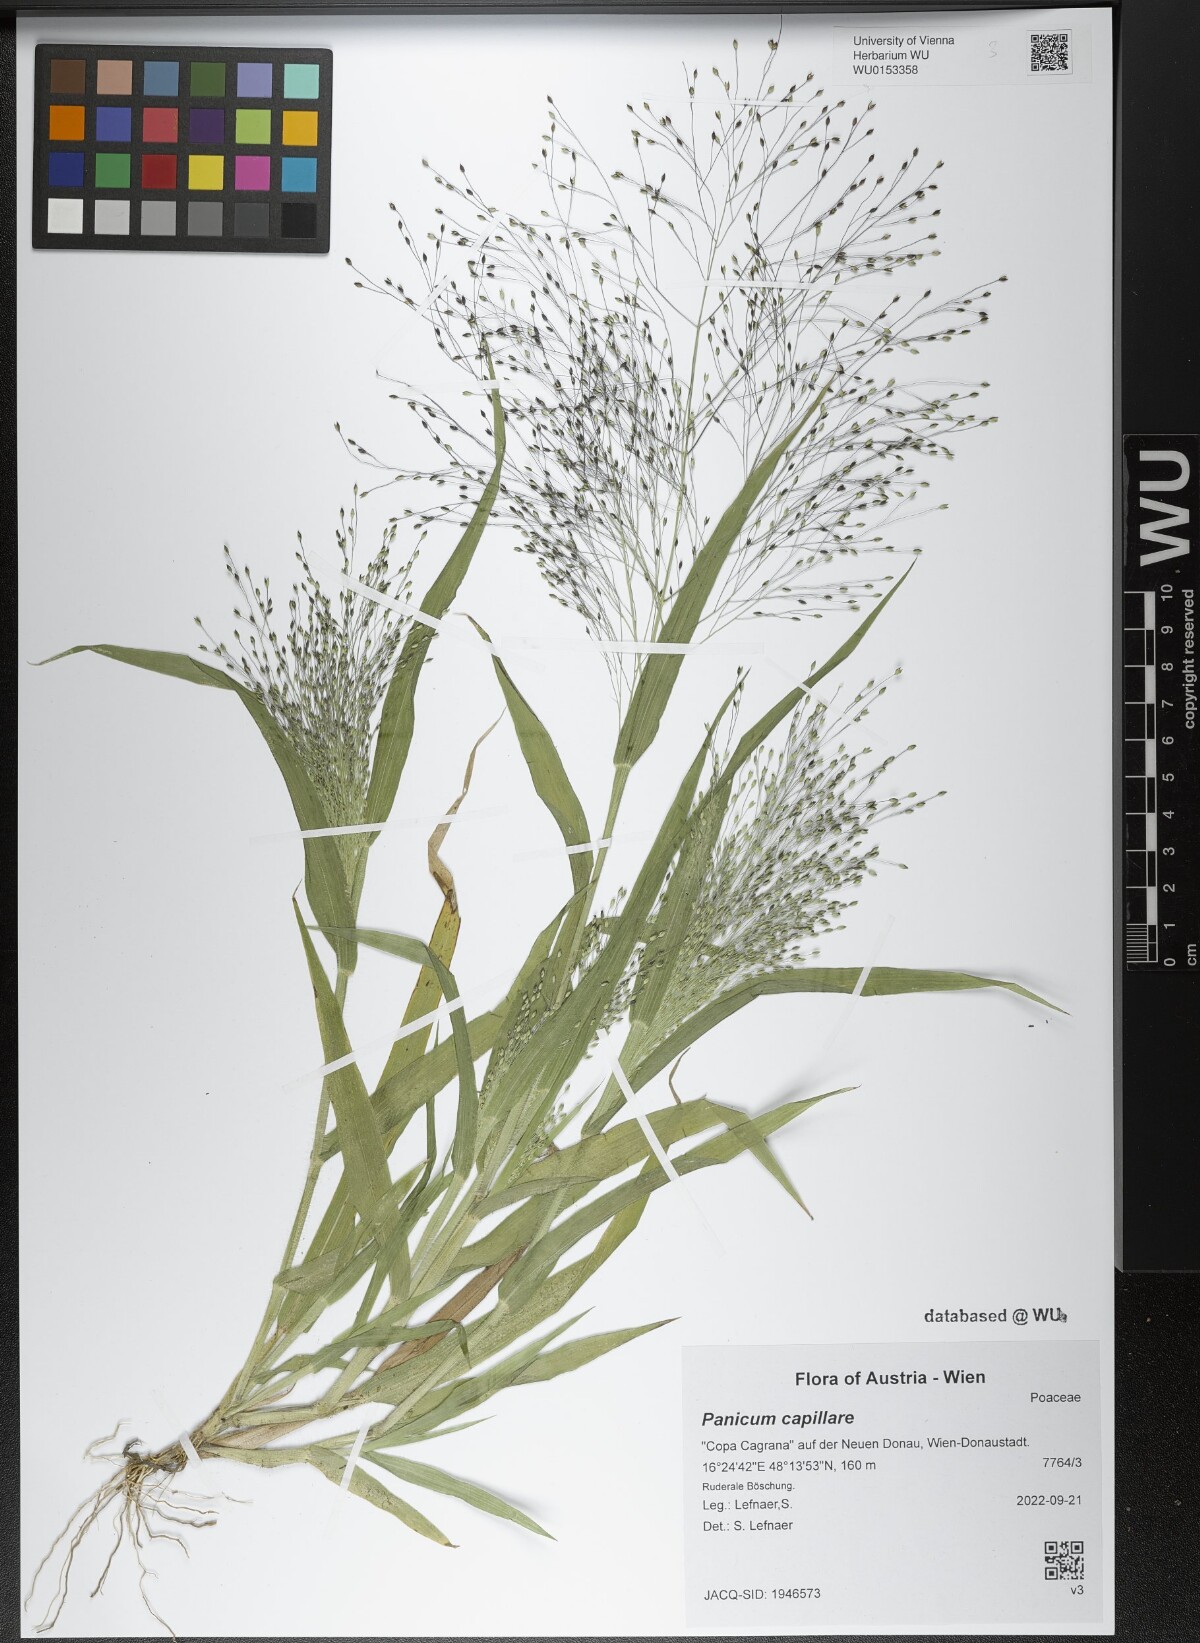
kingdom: Plantae
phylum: Tracheophyta
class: Liliopsida
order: Poales
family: Poaceae
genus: Panicum
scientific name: Panicum capillare
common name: Witch-grass
